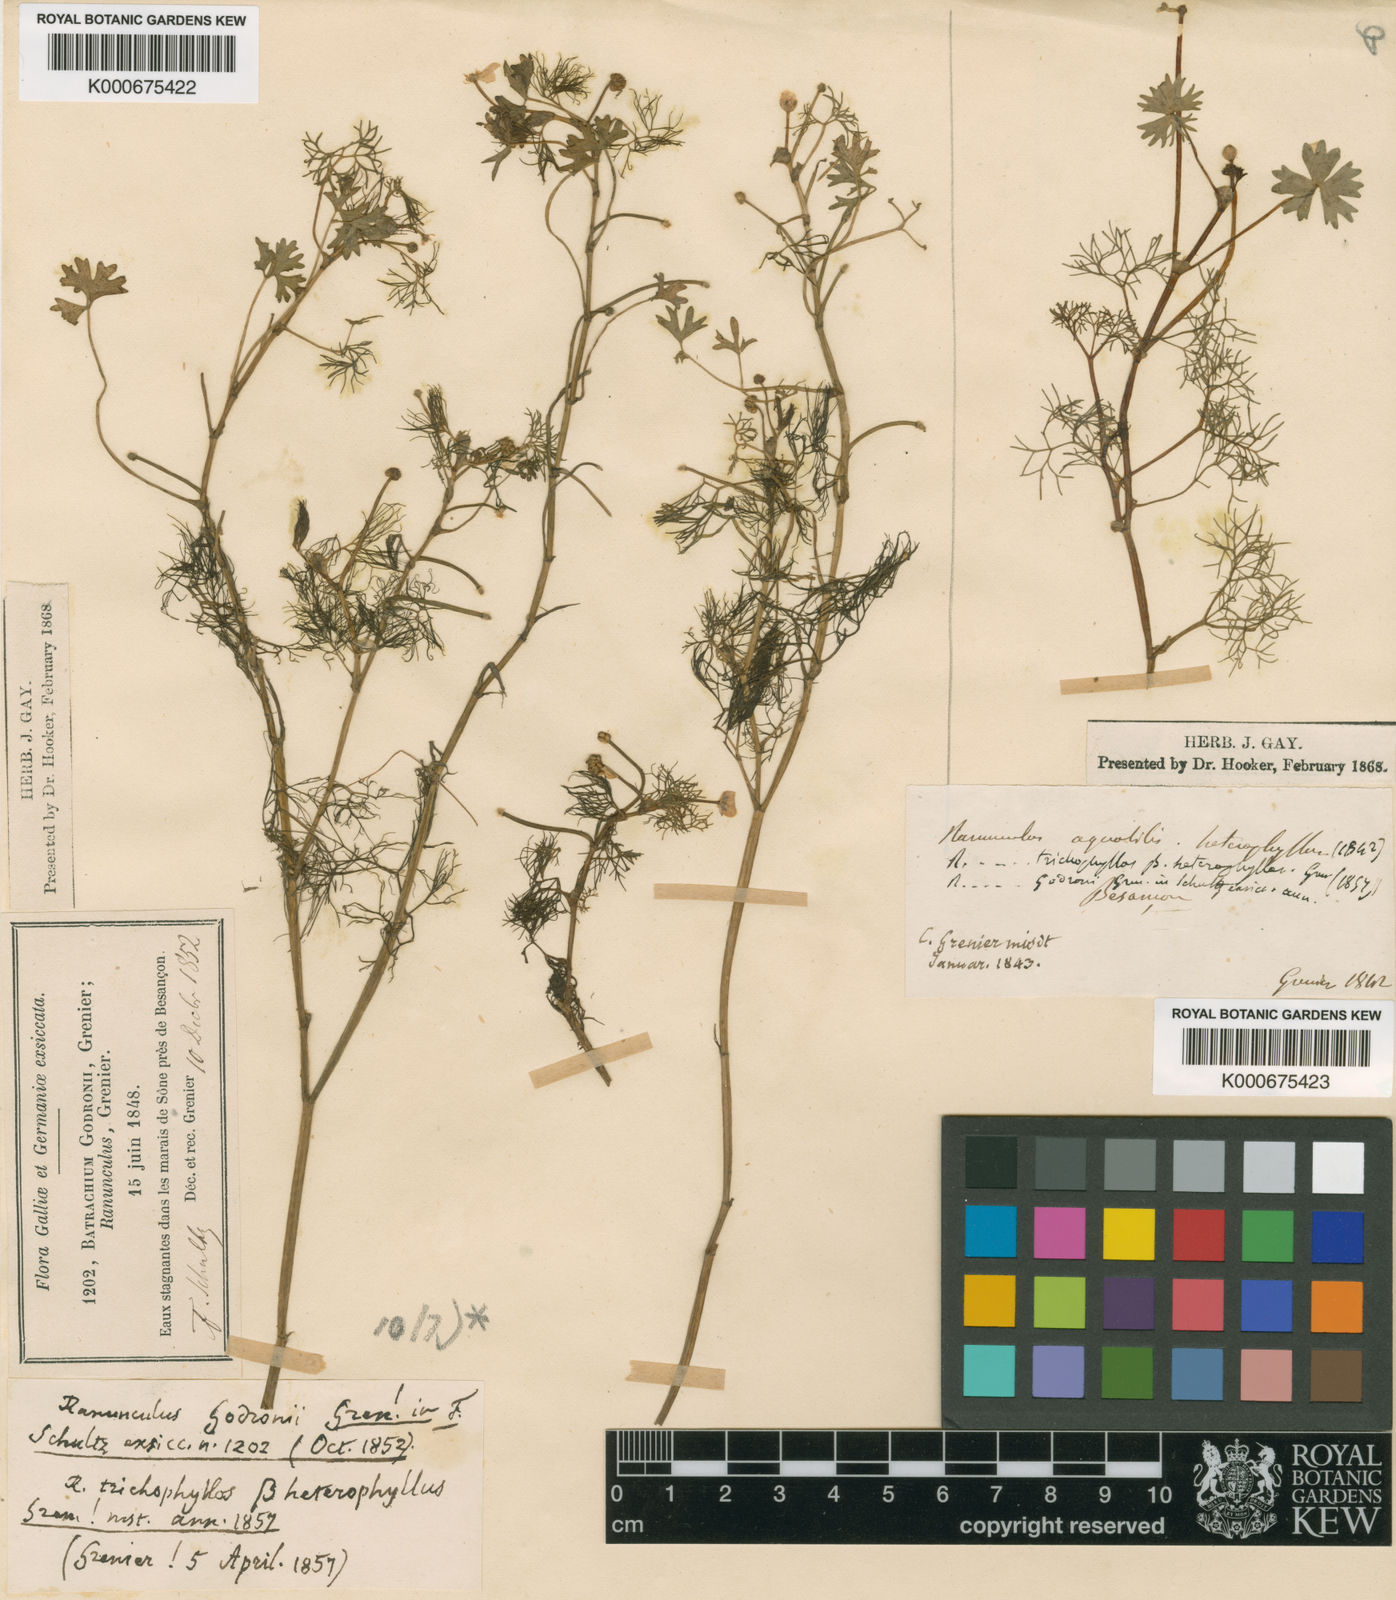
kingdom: Plantae
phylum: Tracheophyta
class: Magnoliopsida
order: Ranunculales
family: Ranunculaceae
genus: Ranunculus
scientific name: Ranunculus aquatilis
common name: Common water-crowfoot
